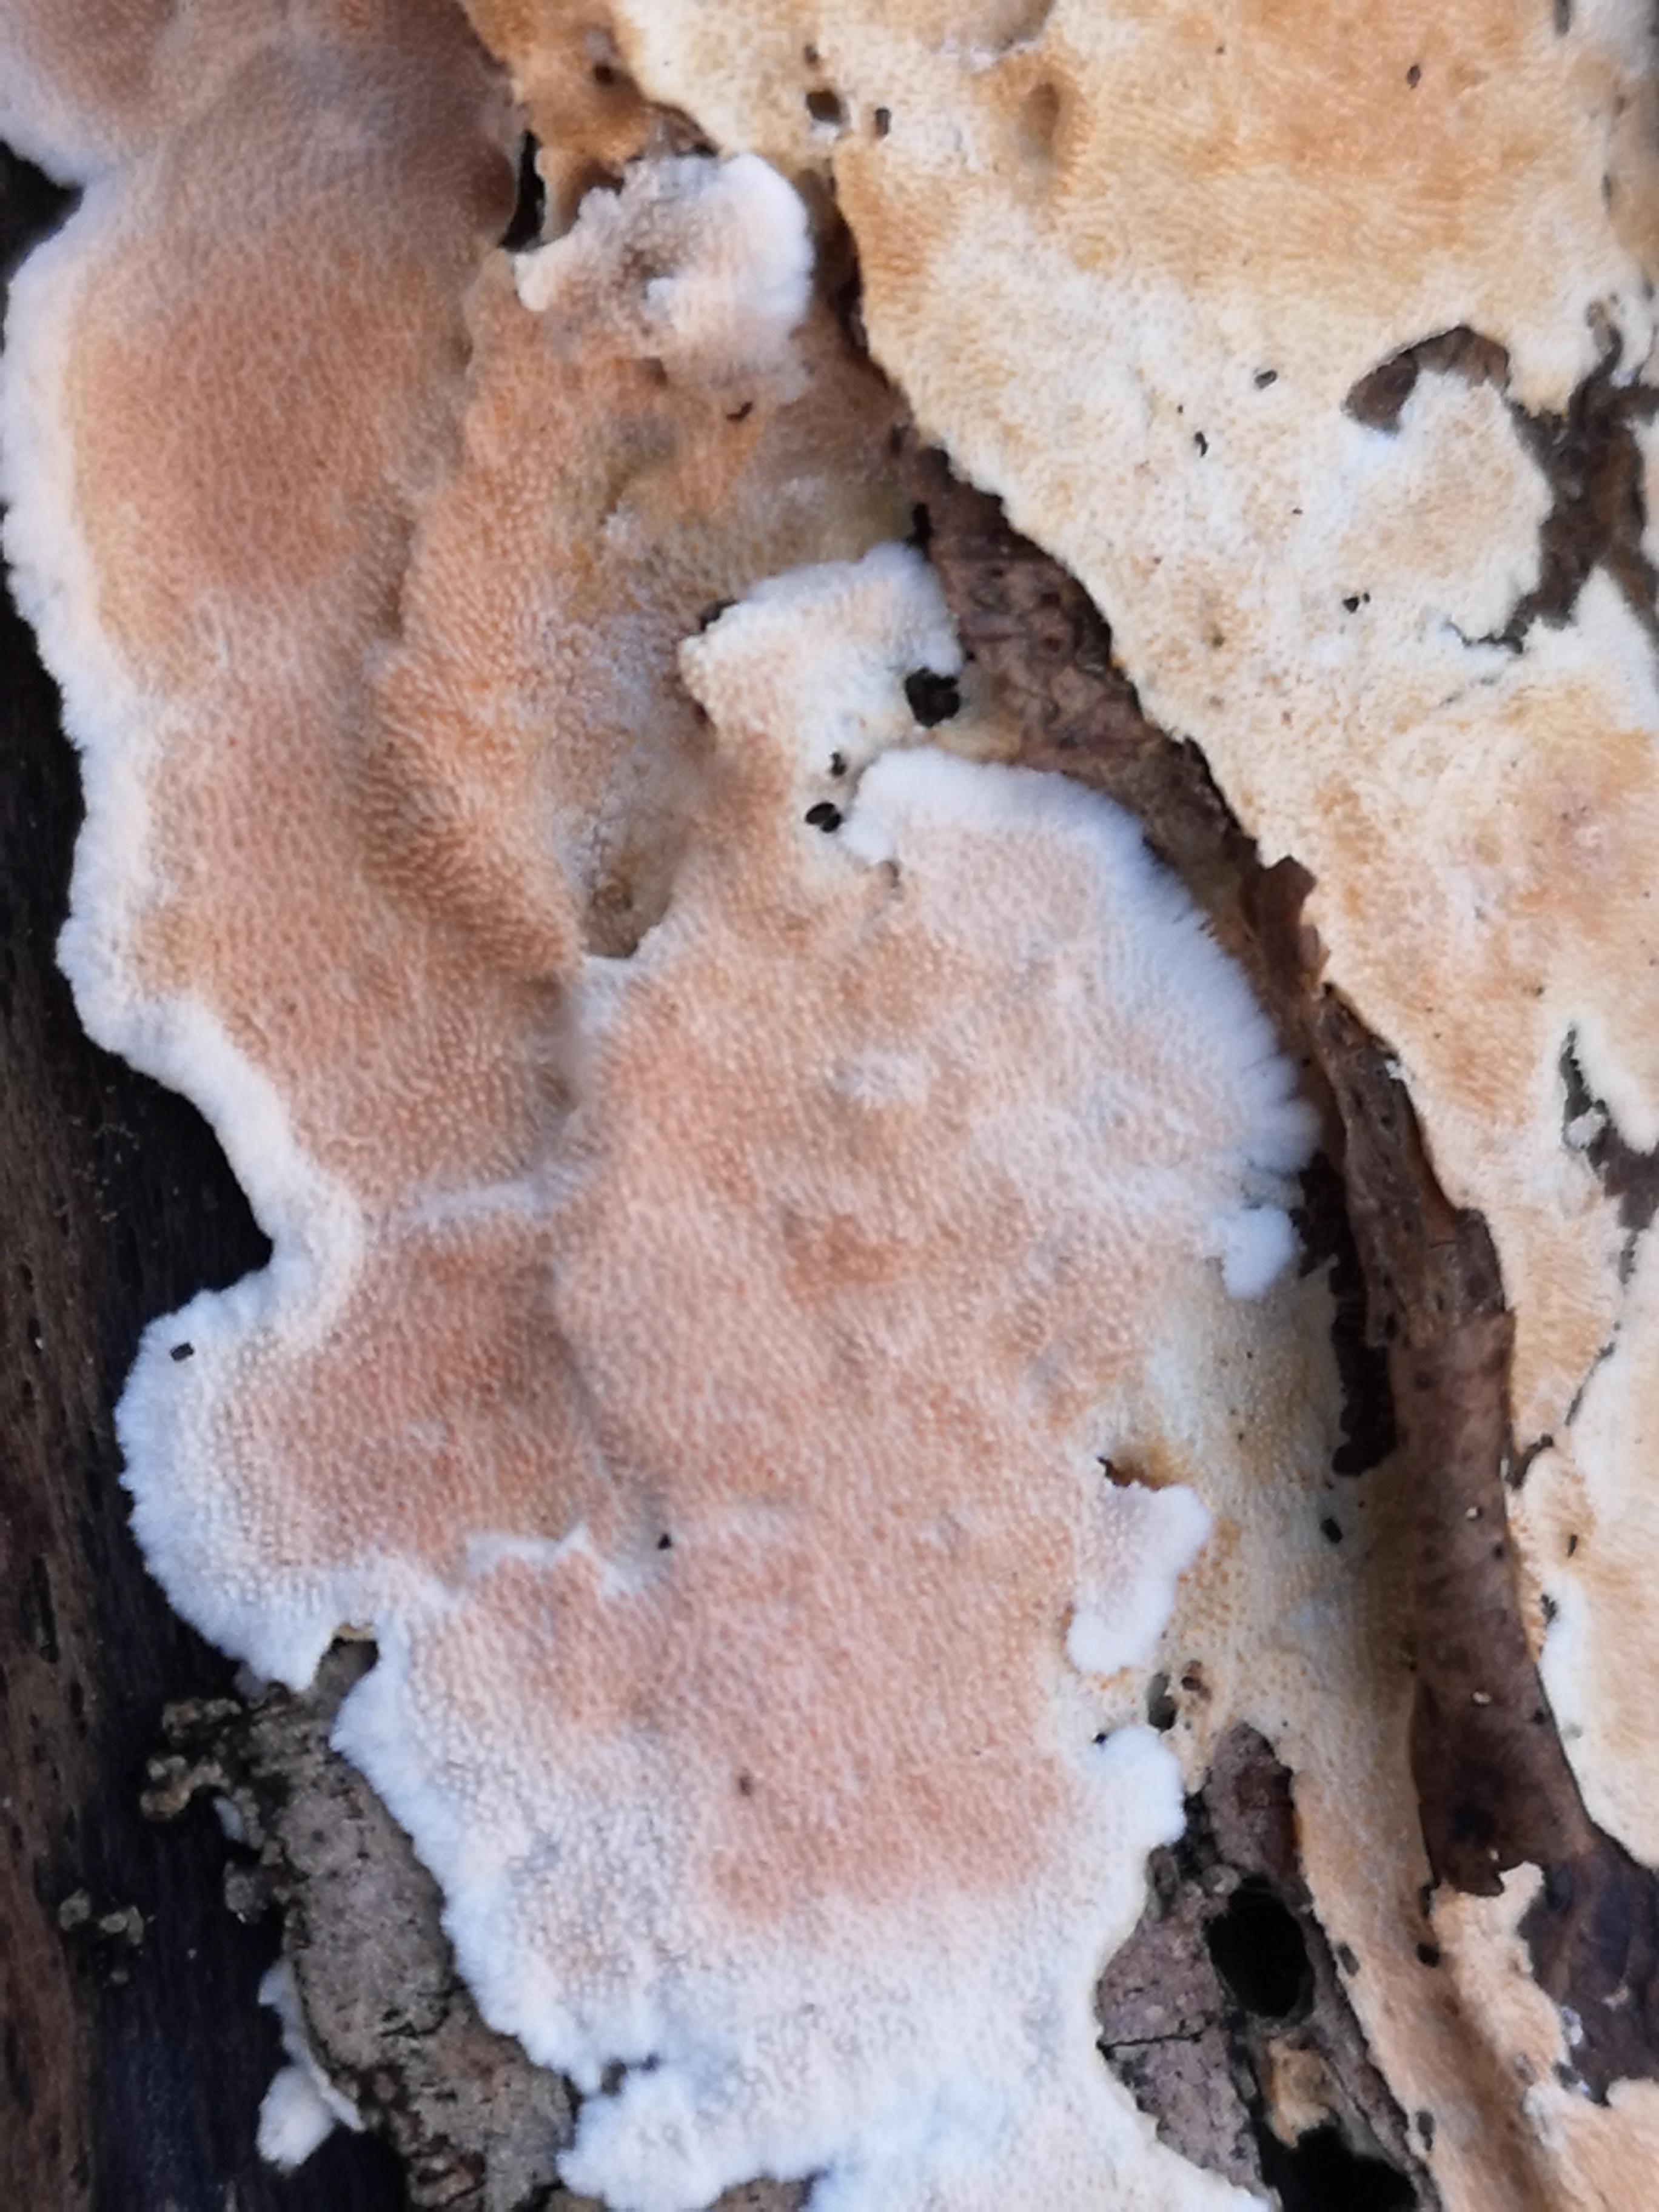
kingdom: Fungi
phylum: Basidiomycota
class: Agaricomycetes
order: Polyporales
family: Steccherinaceae
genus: Steccherinum
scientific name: Steccherinum ochraceum
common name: almindelig skønpig
